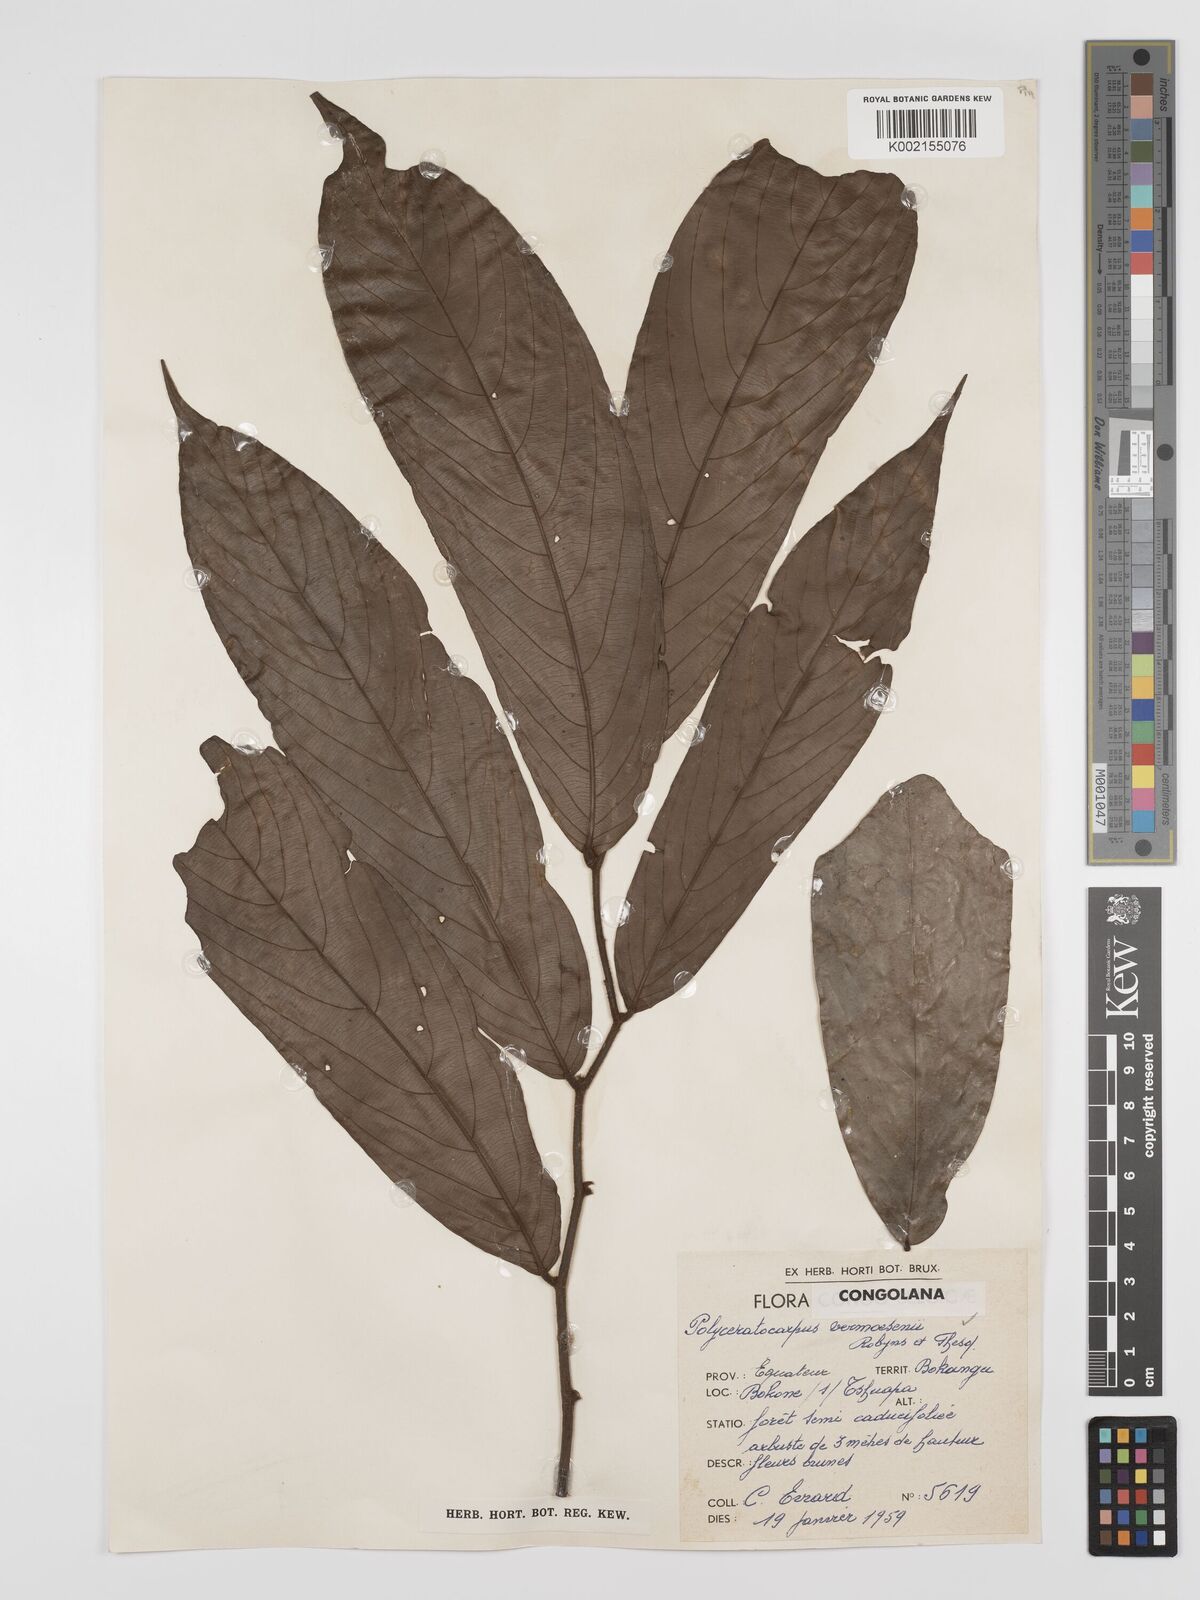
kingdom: Plantae
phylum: Tracheophyta
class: Magnoliopsida
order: Magnoliales
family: Annonaceae
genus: Polyceratocarpus
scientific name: Polyceratocarpus gossweileri
